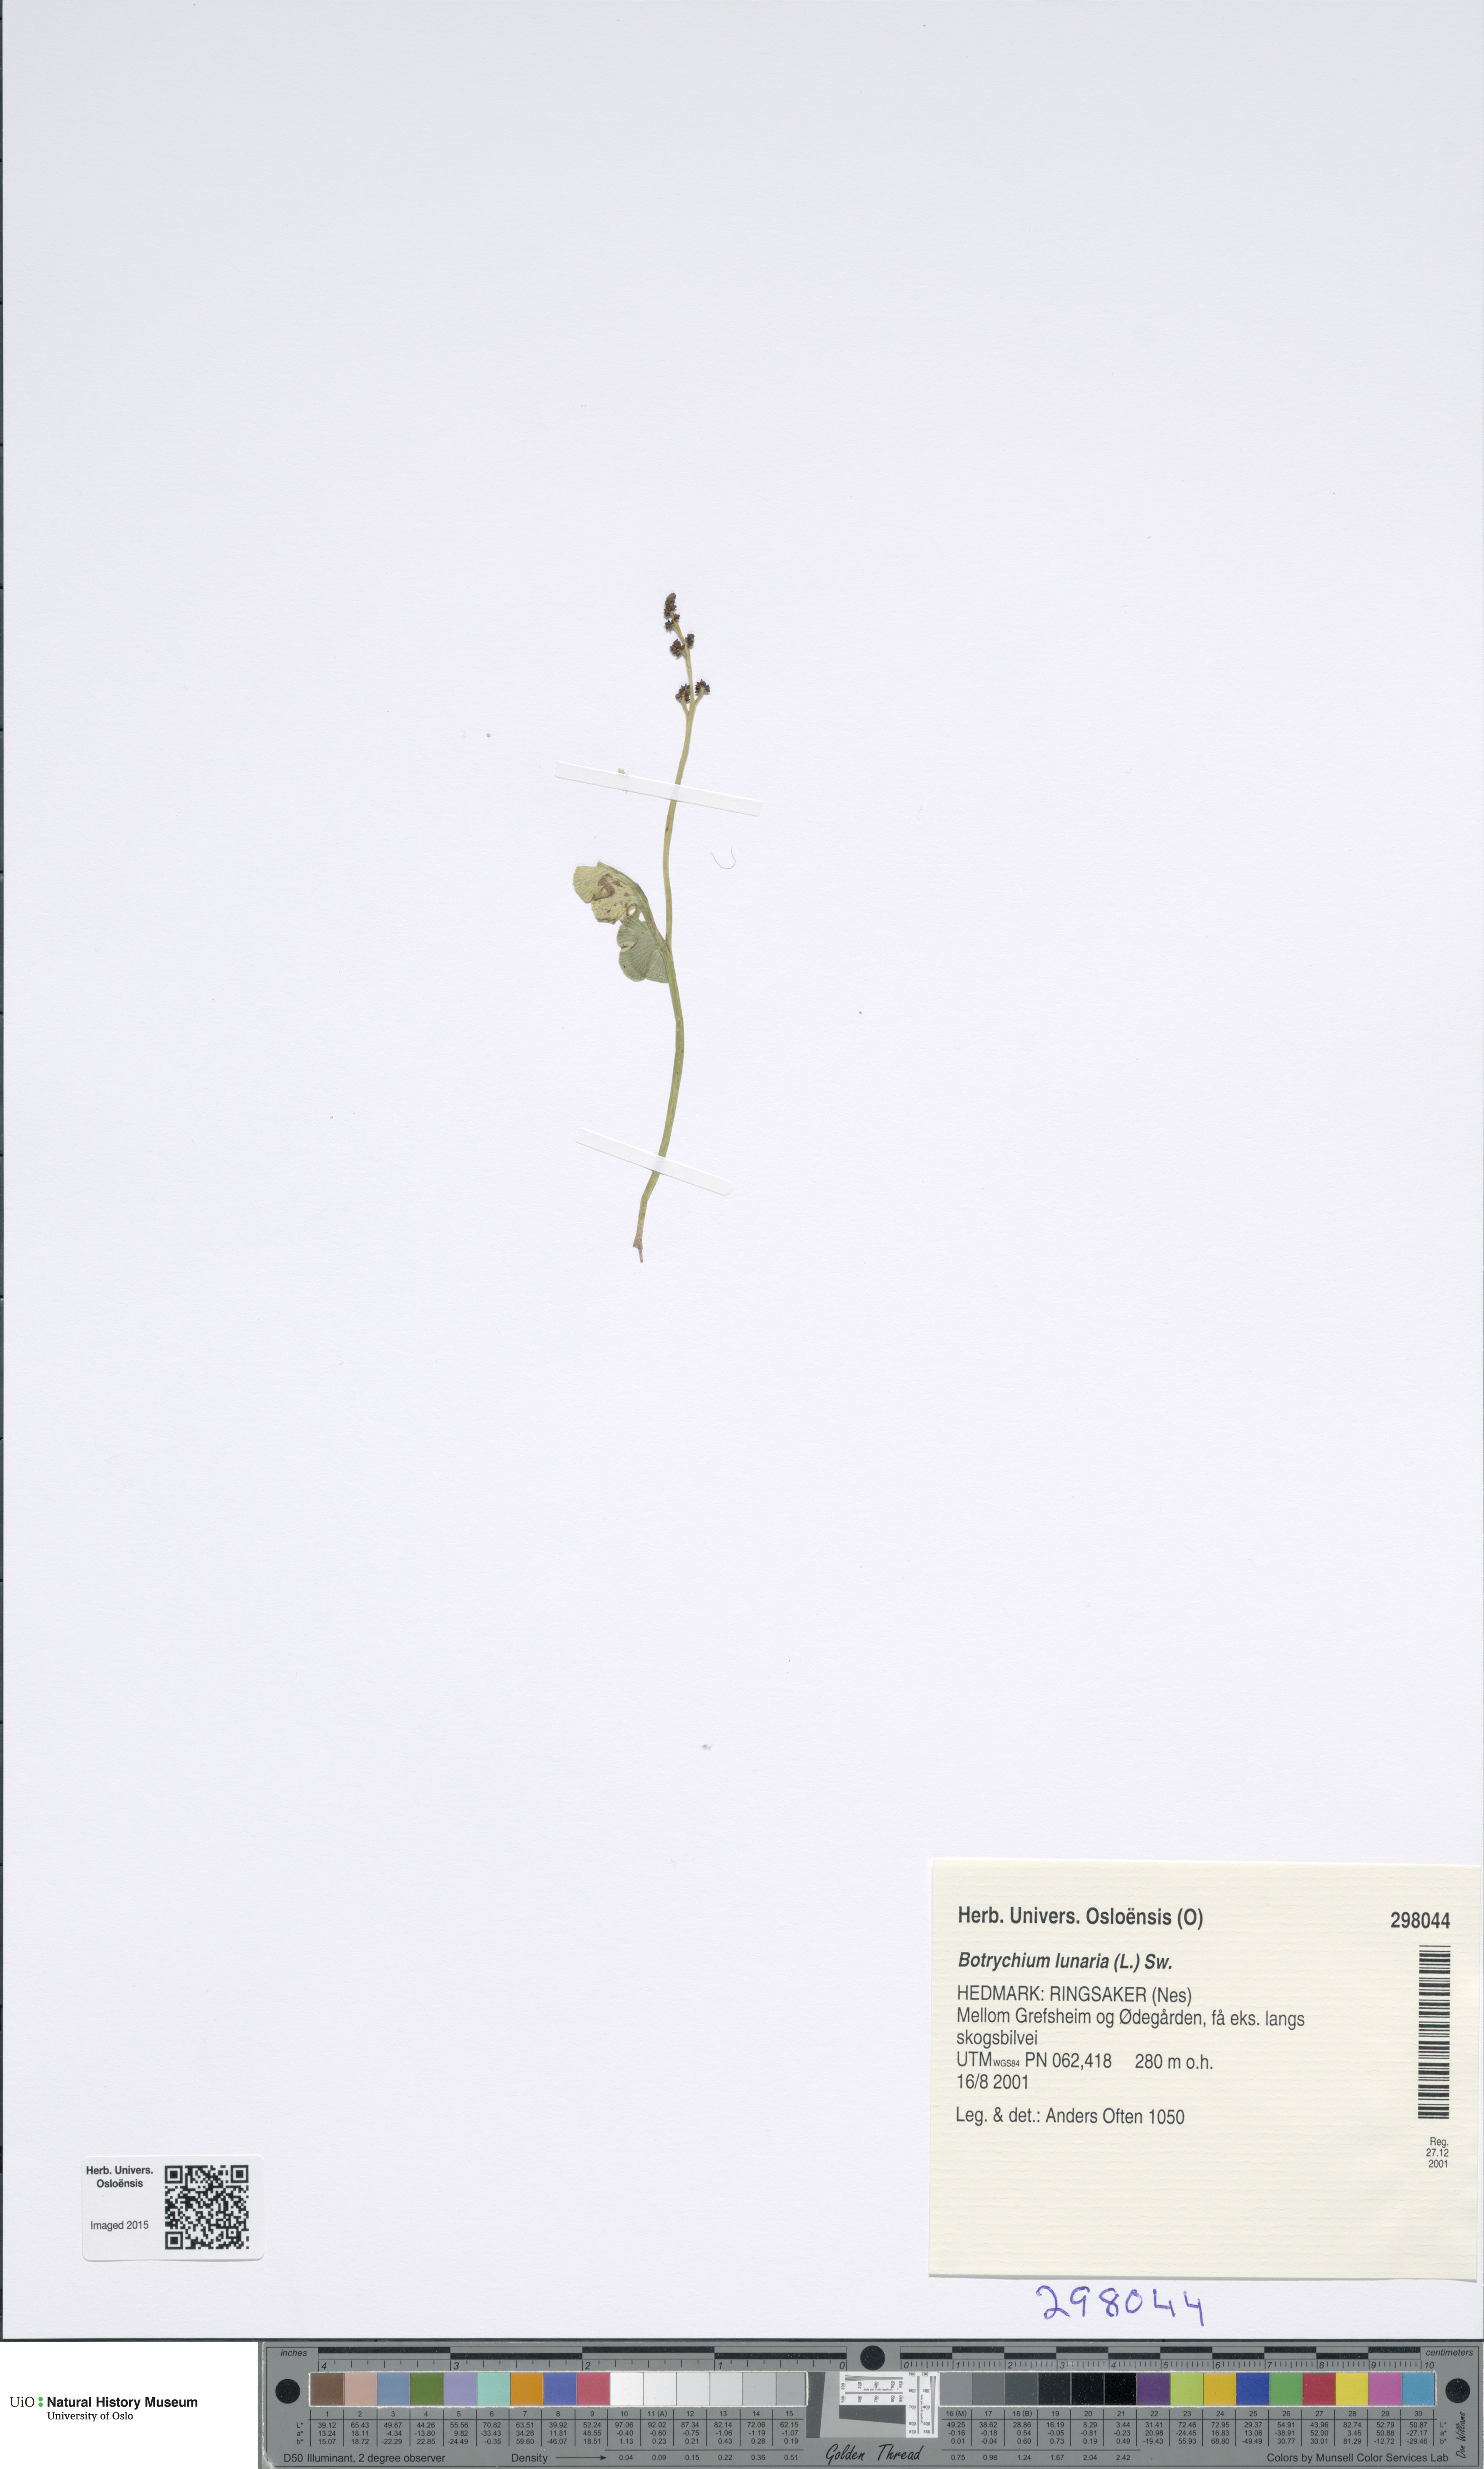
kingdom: Plantae
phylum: Tracheophyta
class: Polypodiopsida
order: Ophioglossales
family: Ophioglossaceae
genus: Botrychium
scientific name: Botrychium lunaria
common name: Moonwort
